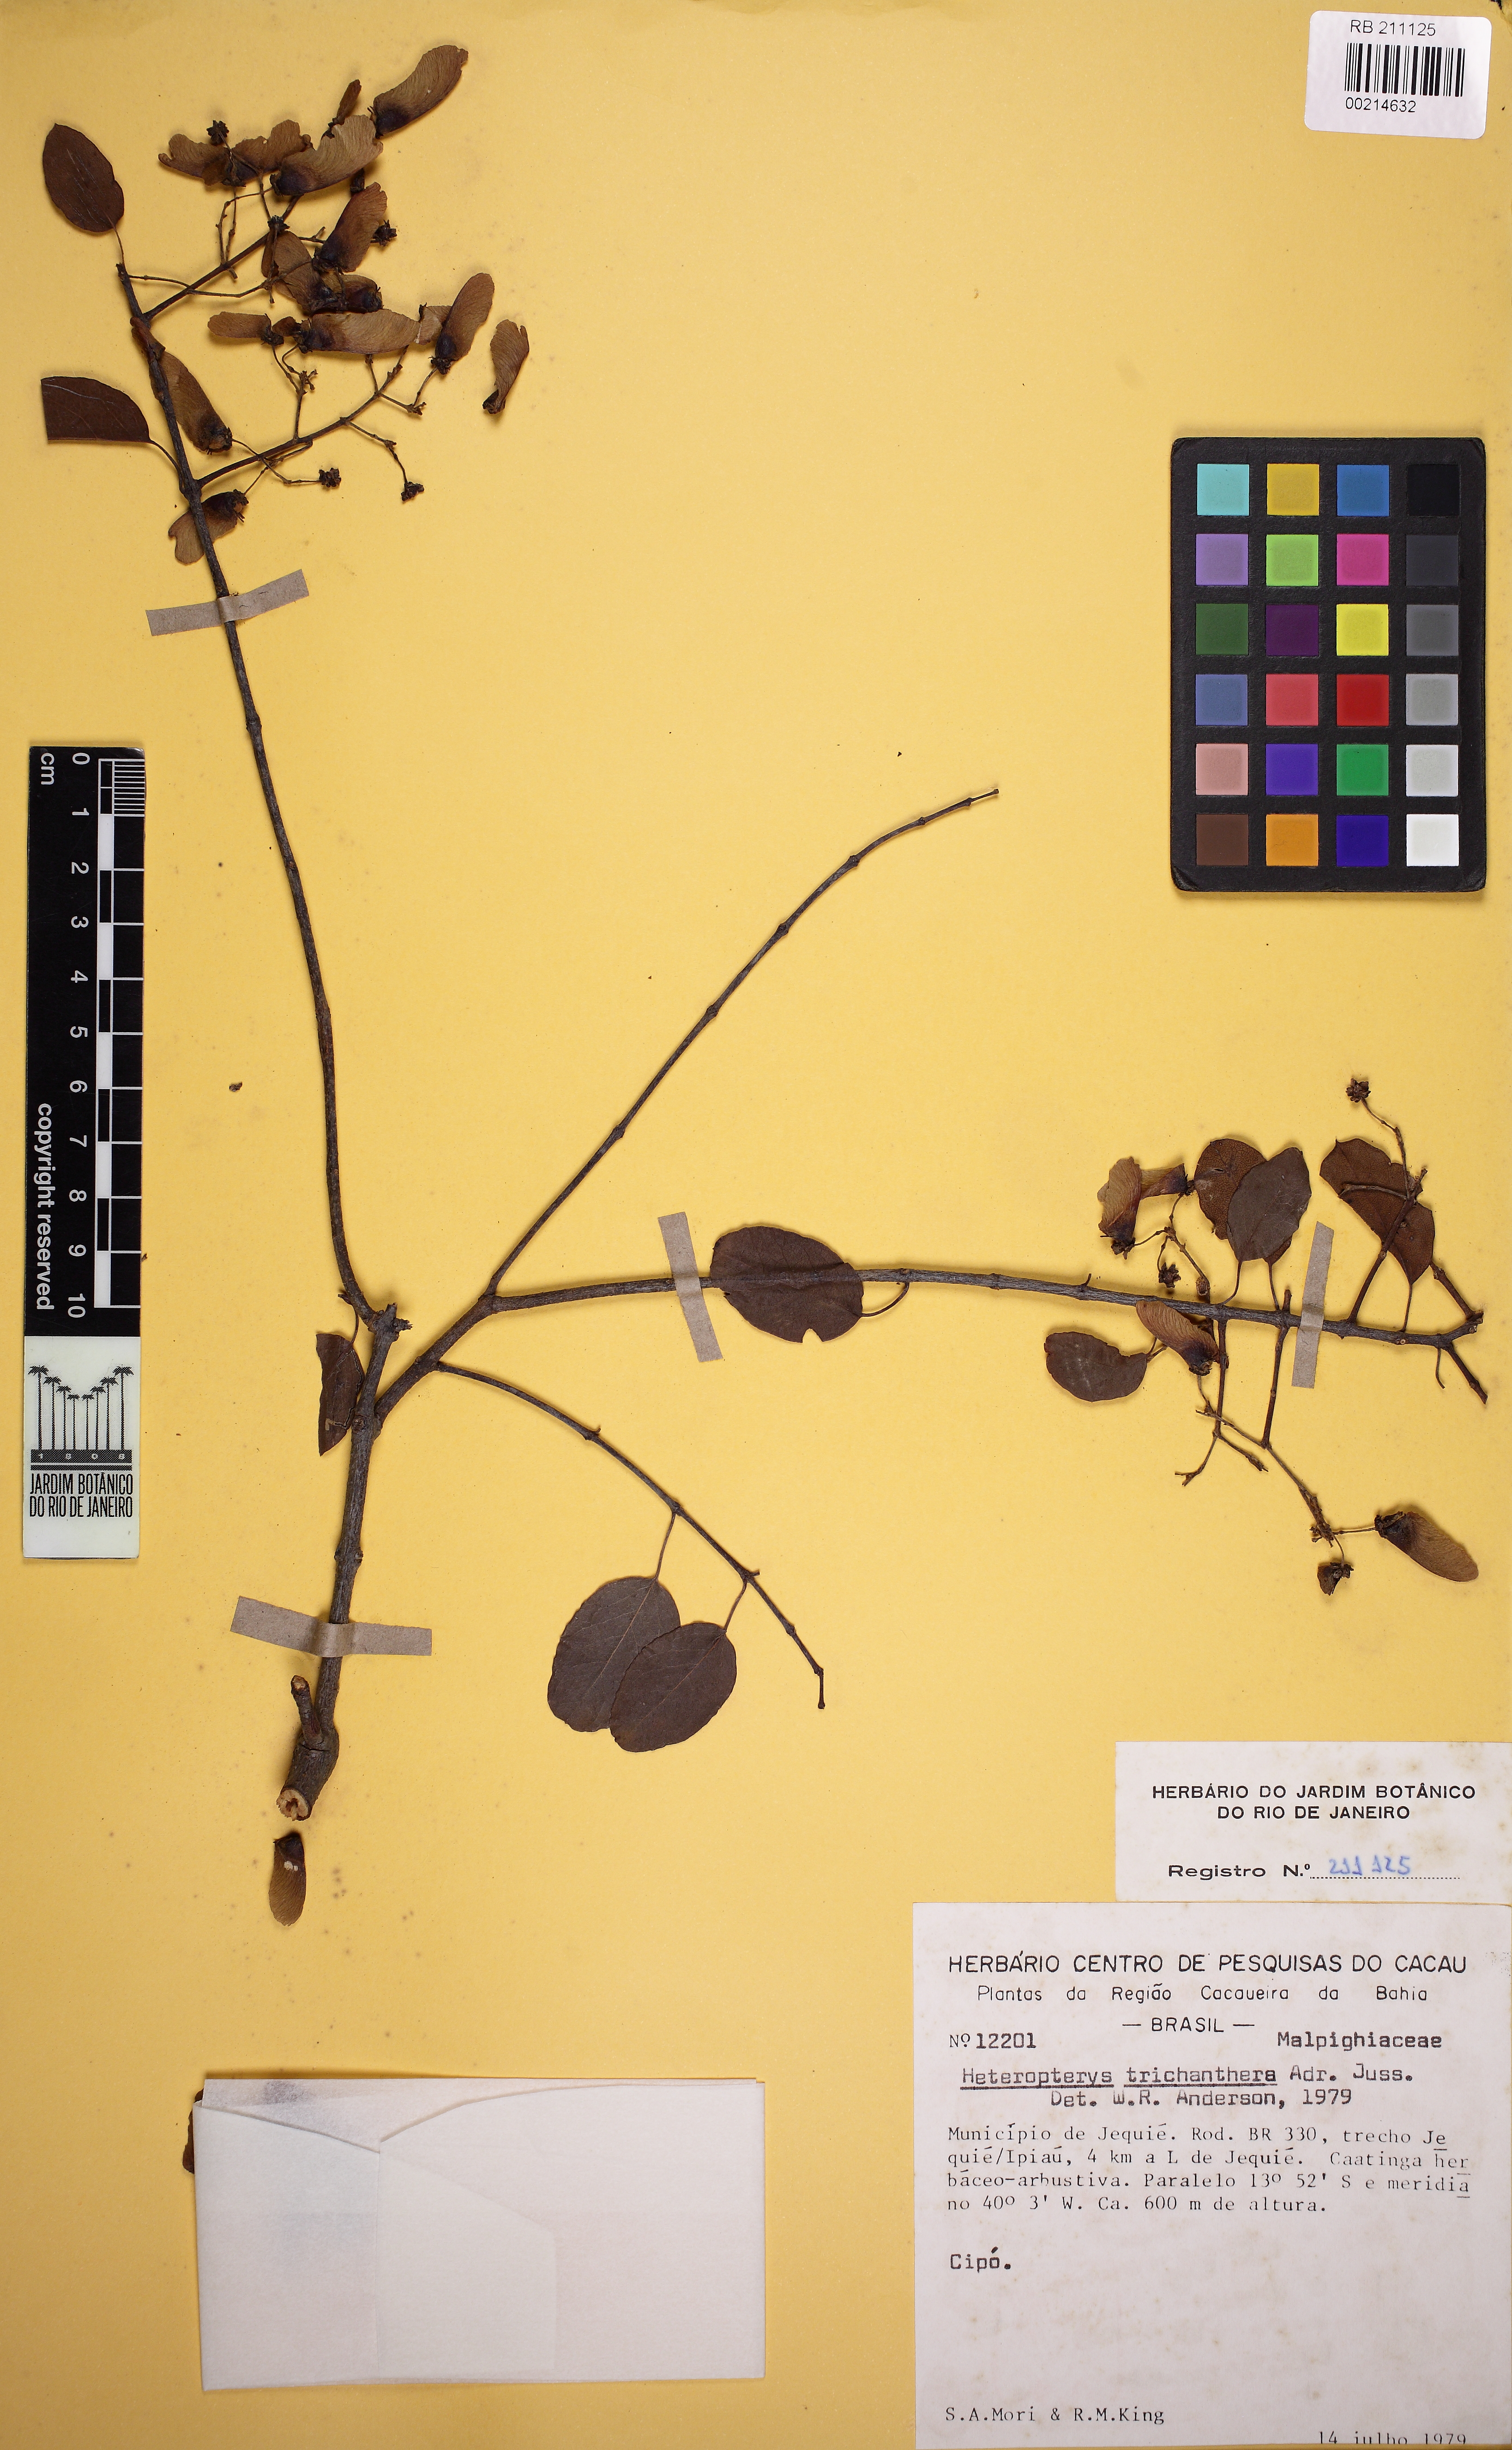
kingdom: Plantae
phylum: Tracheophyta
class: Magnoliopsida
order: Malpighiales
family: Malpighiaceae
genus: Heteropterys
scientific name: Heteropterys trichanthera
